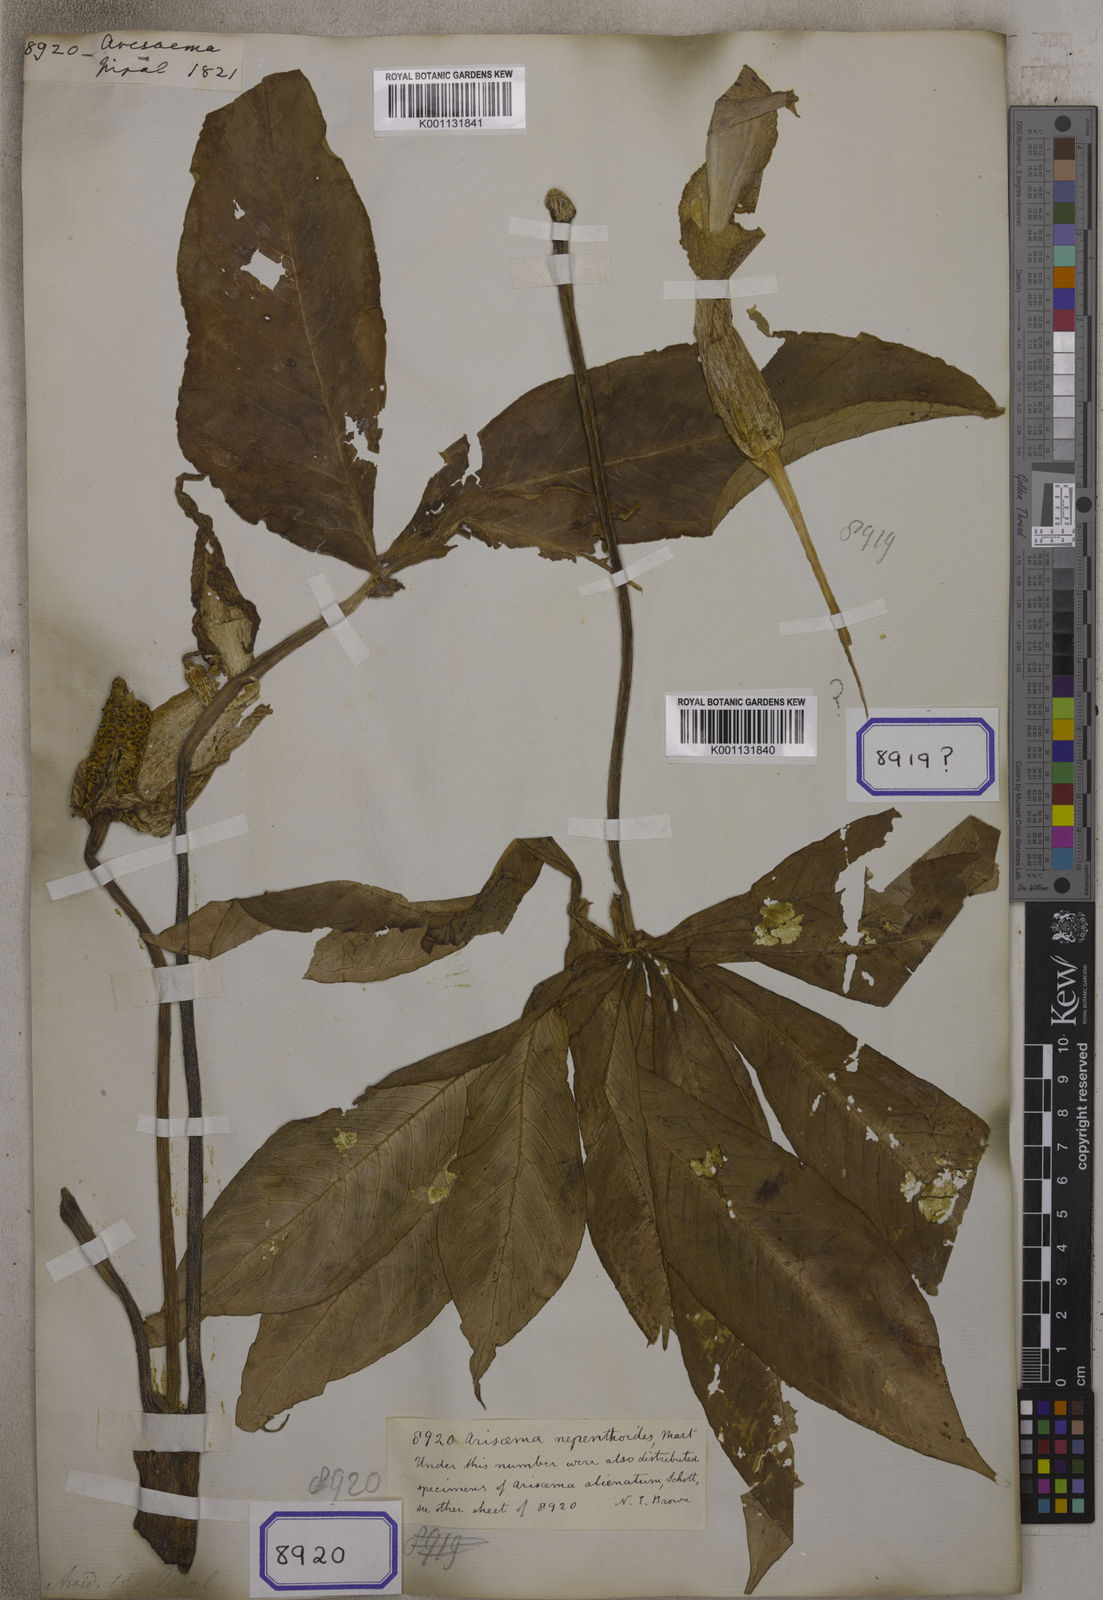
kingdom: Plantae
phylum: Tracheophyta
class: Liliopsida
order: Alismatales
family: Araceae
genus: Arisaema
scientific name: Arisaema
